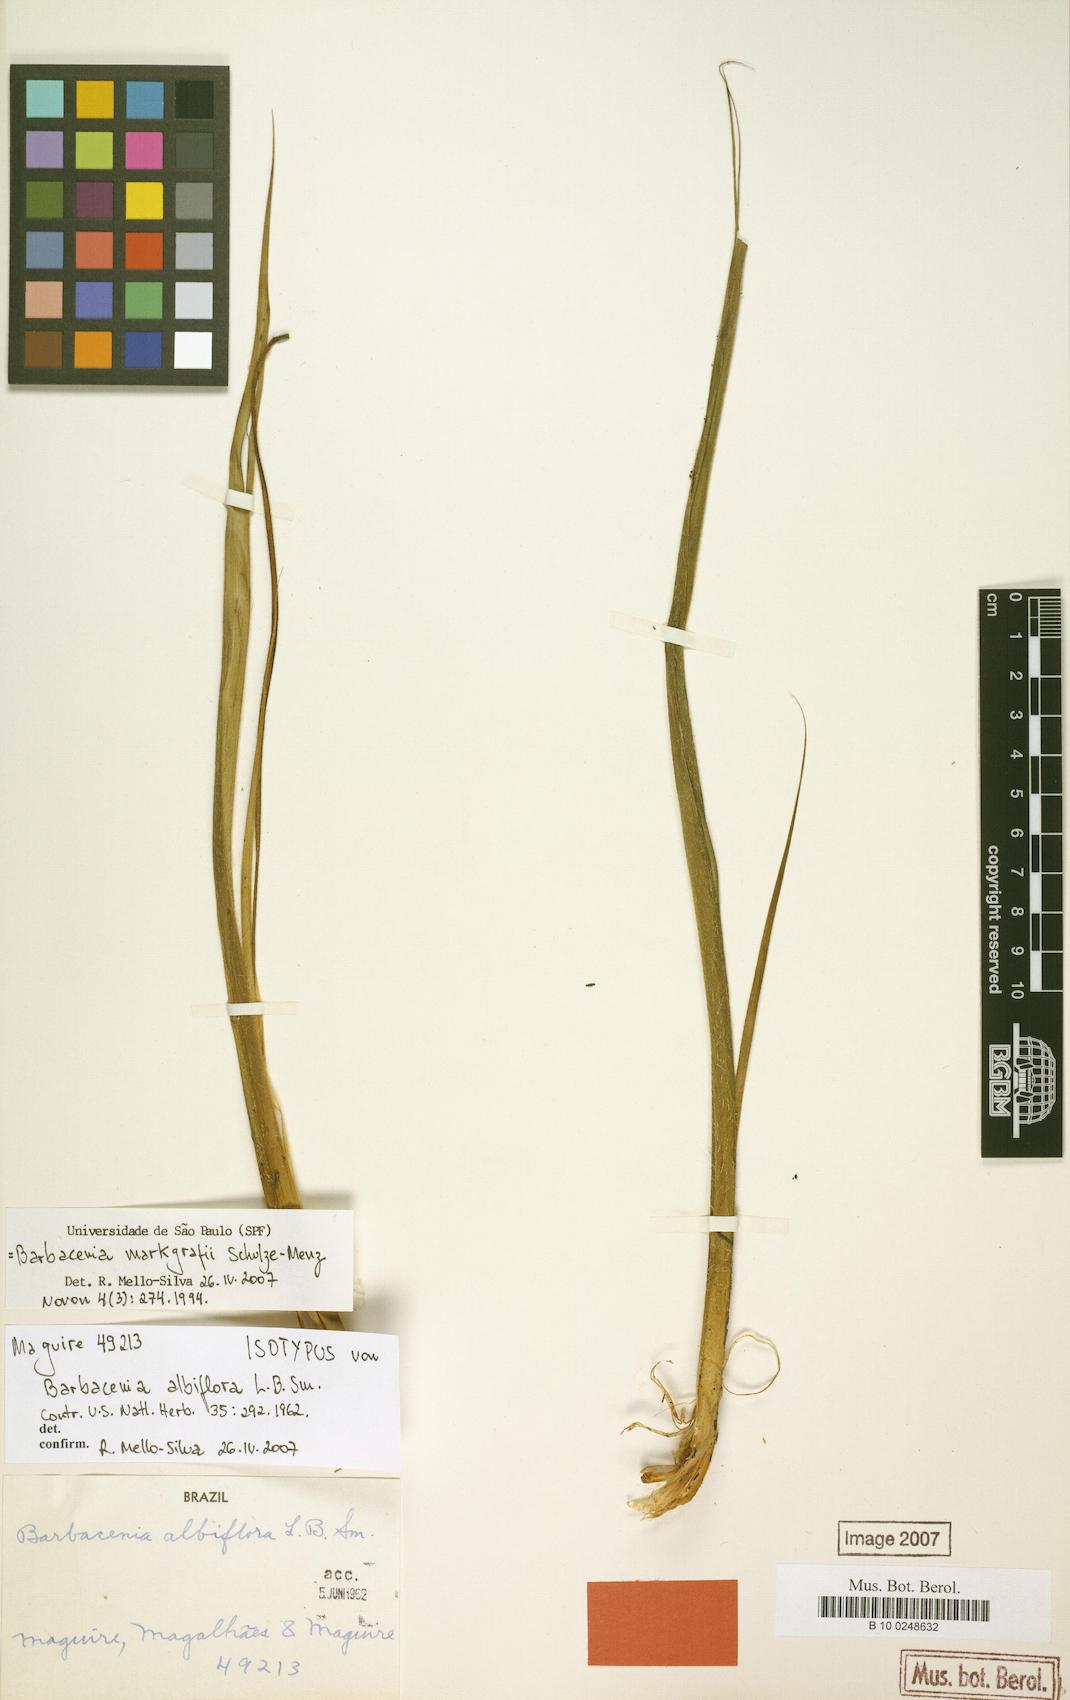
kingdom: Plantae
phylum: Tracheophyta
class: Liliopsida
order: Pandanales
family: Velloziaceae
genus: Barbacenia
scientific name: Barbacenia markgrafii
